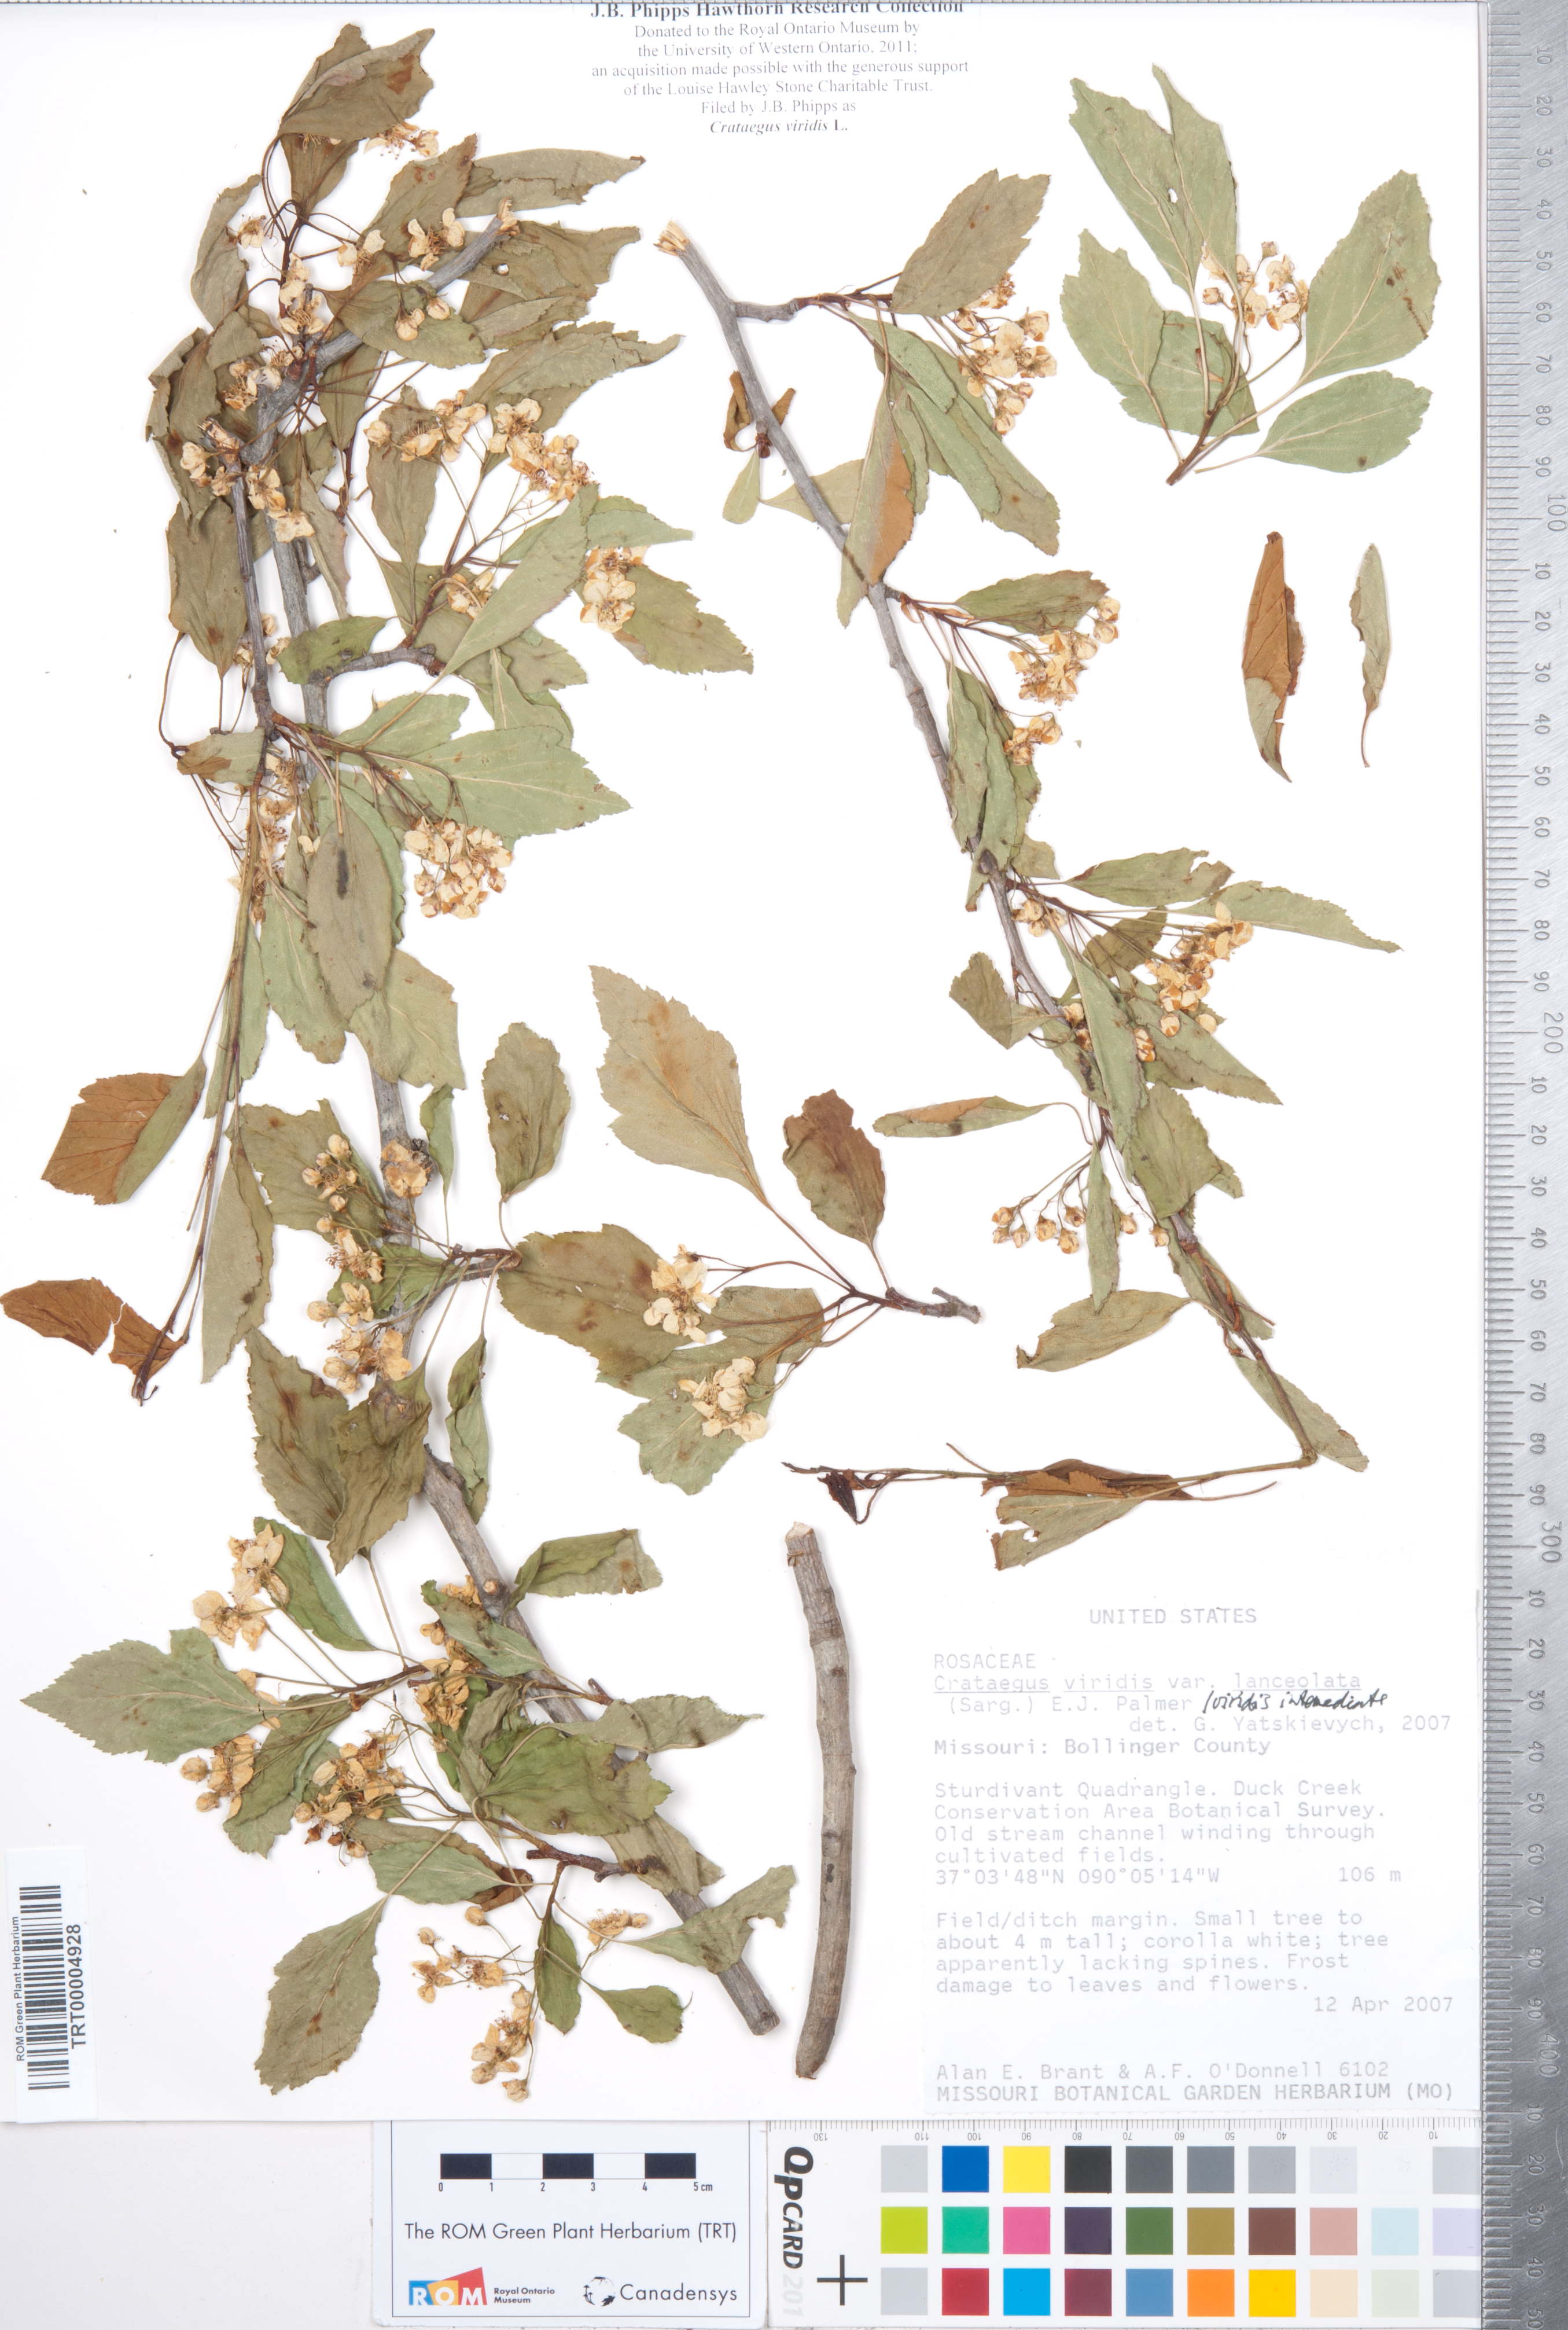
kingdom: Plantae
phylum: Tracheophyta
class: Magnoliopsida
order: Rosales
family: Rosaceae
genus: Crataegus
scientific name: Crataegus viridis
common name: Southernthorn
